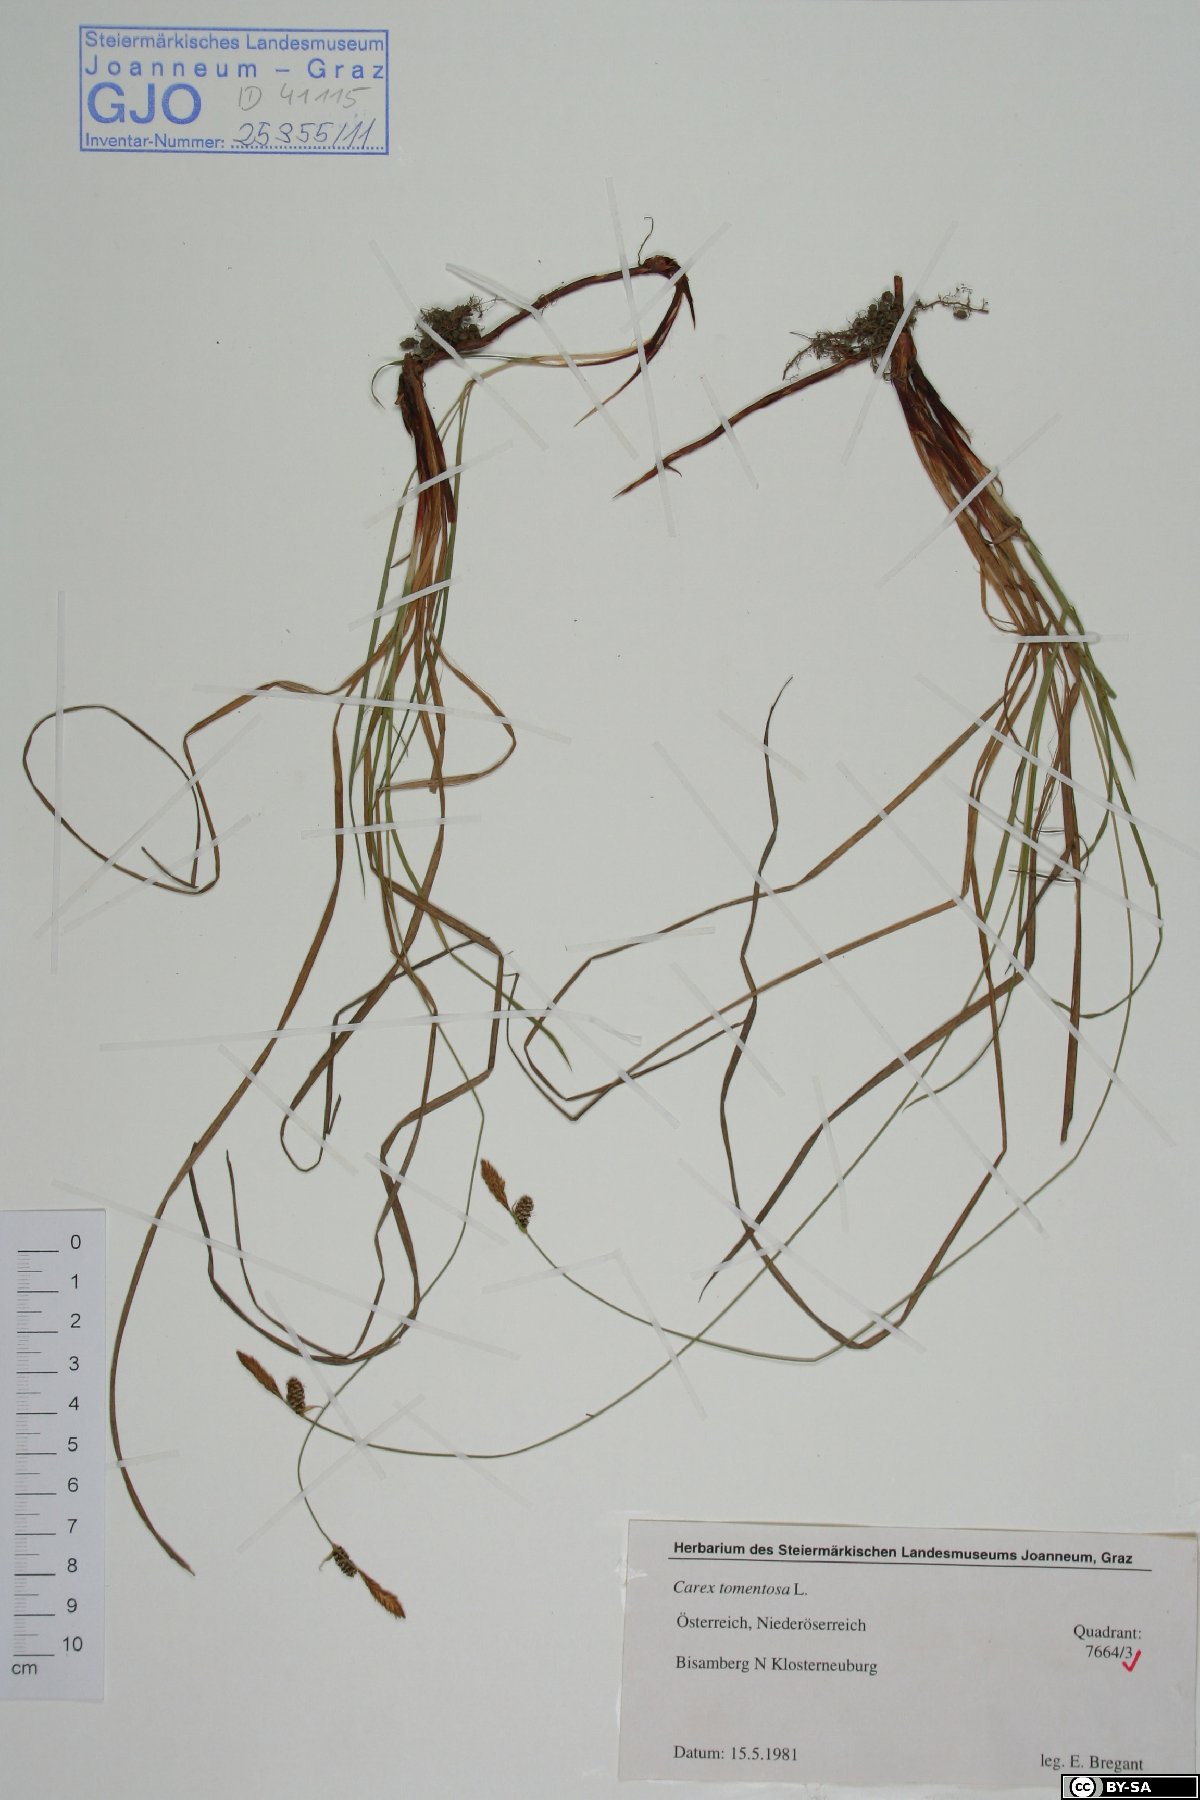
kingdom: Plantae
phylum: Tracheophyta
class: Liliopsida
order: Poales
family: Cyperaceae
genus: Carex
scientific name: Carex tomentosa
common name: Downy-fruited sedge
